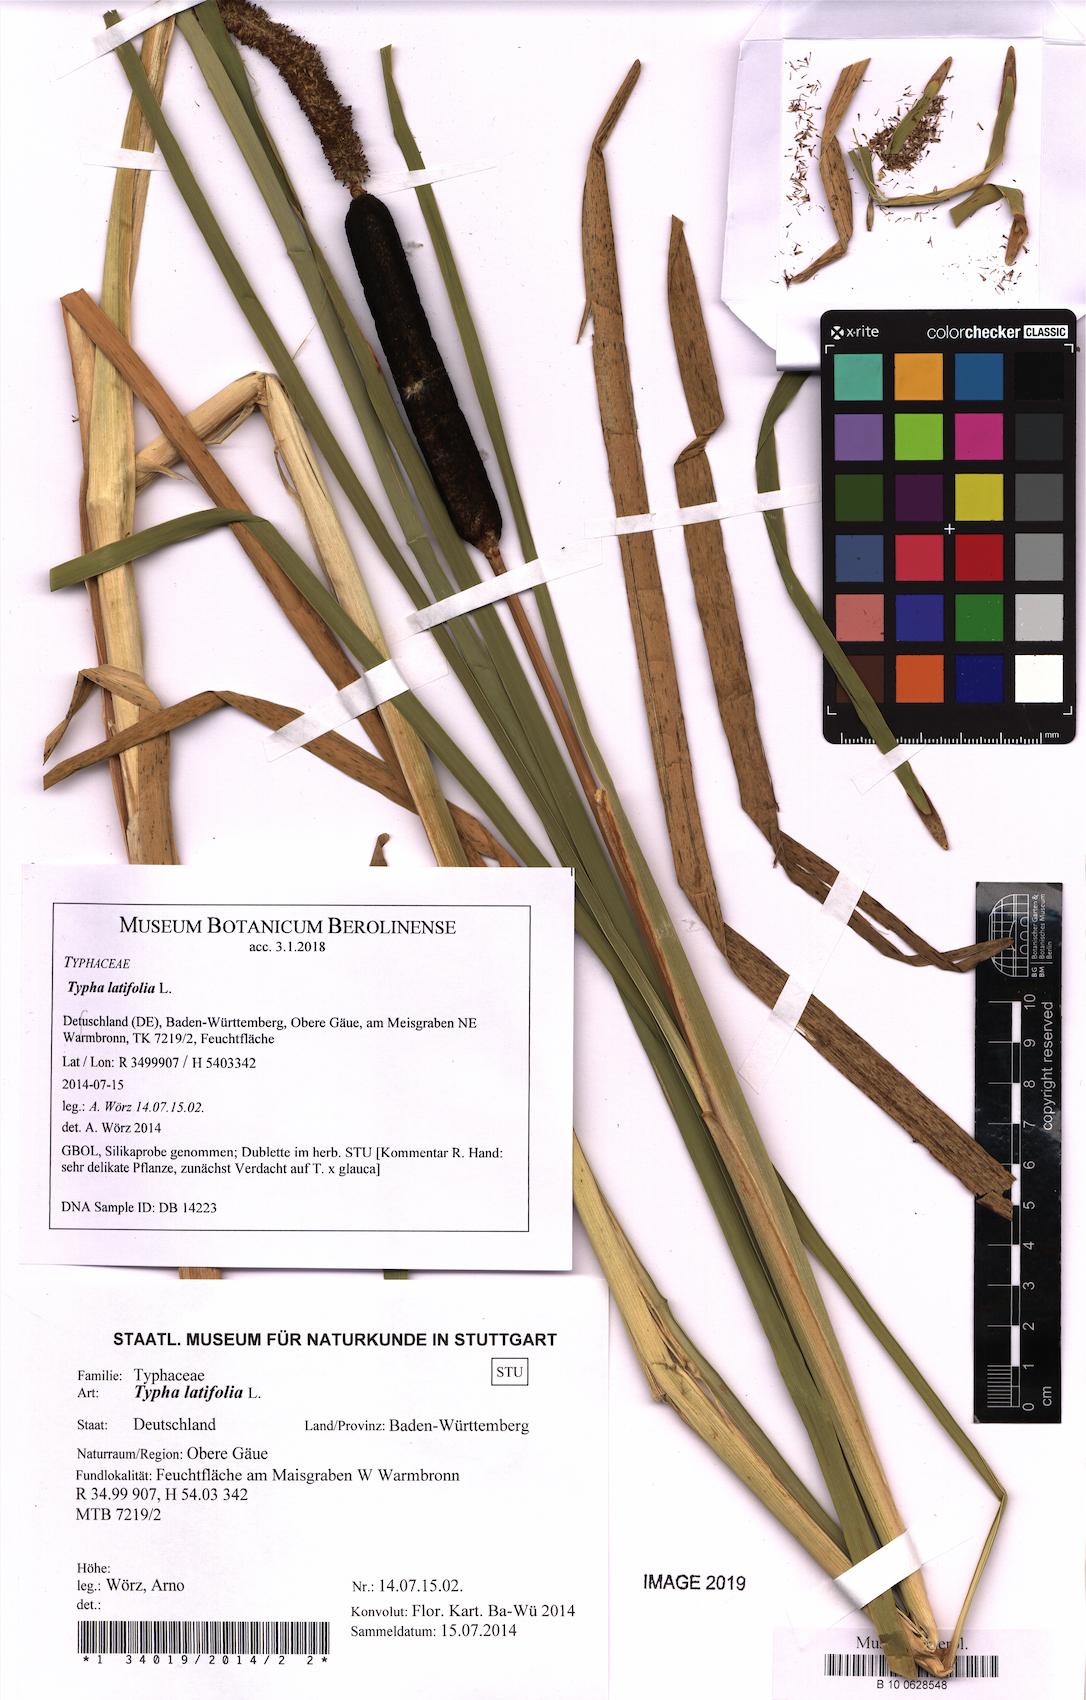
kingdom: Plantae
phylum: Tracheophyta
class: Liliopsida
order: Poales
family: Typhaceae
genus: Typha
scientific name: Typha latifolia
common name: Broadleaf cattail
